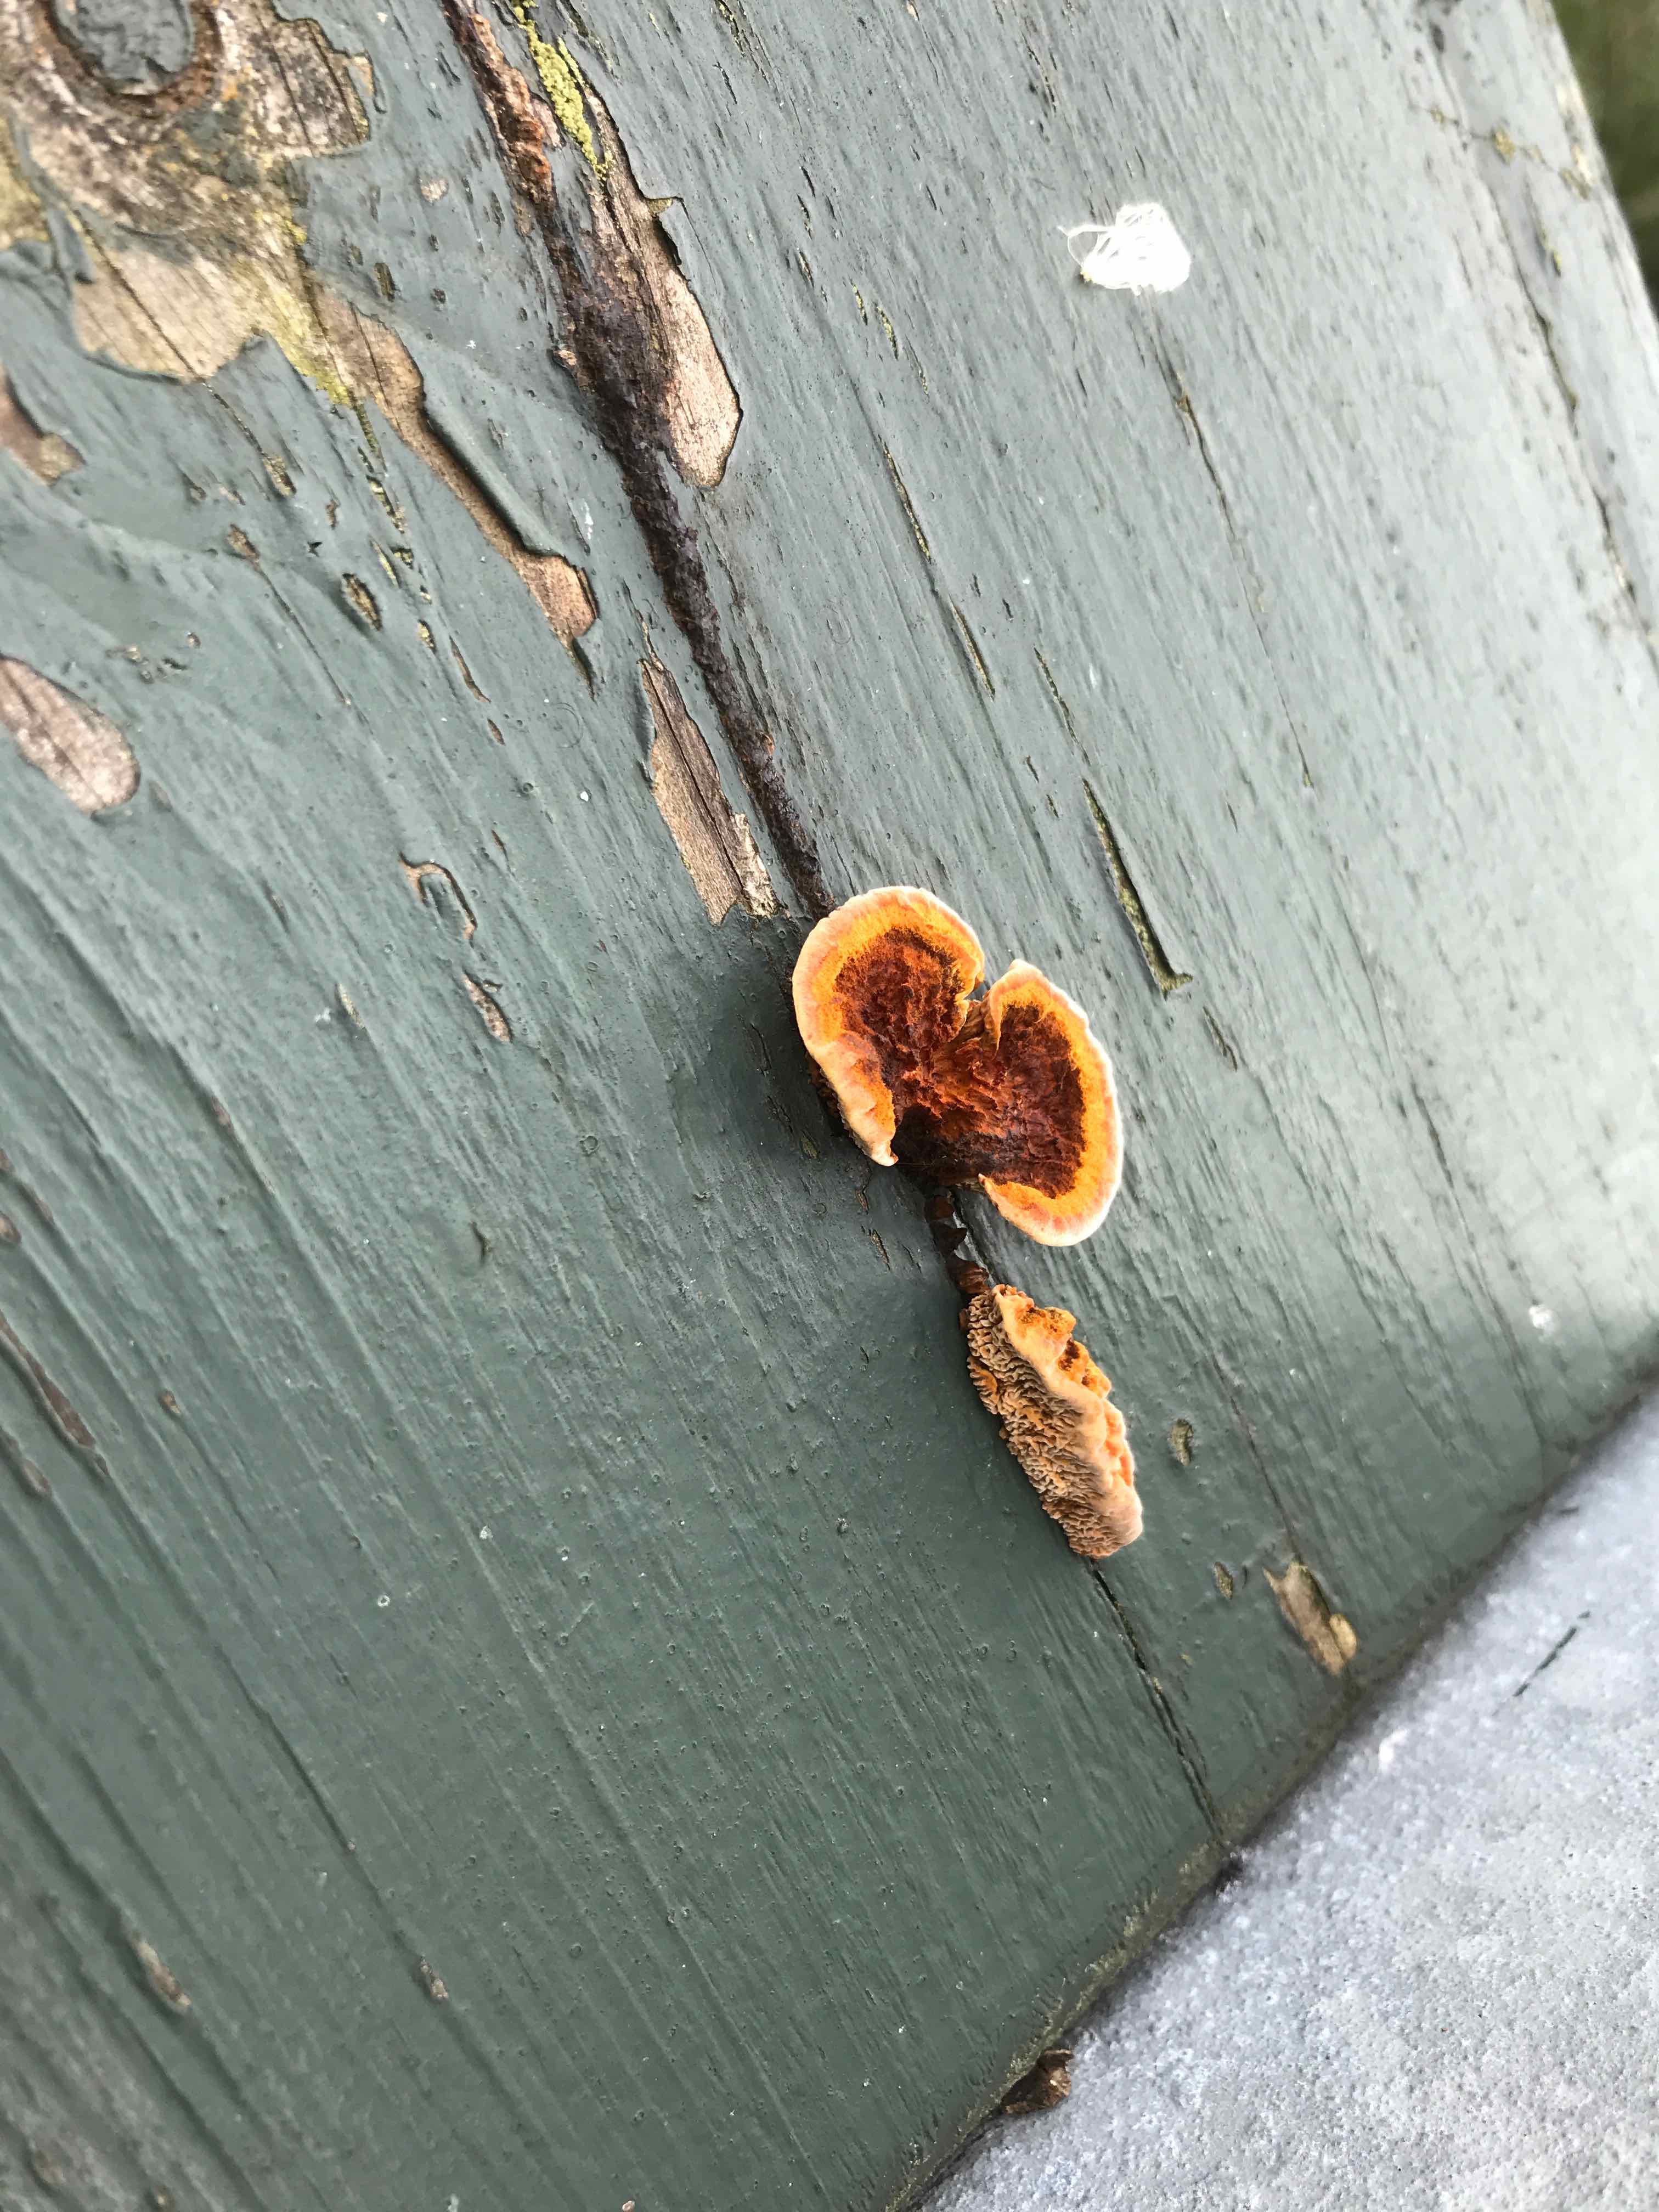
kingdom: Fungi
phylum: Basidiomycota
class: Agaricomycetes
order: Hymenochaetales
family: Hymenochaetaceae
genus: Fuscoporia
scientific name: Fuscoporia ferrea
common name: skorpe-ildporesvamp
